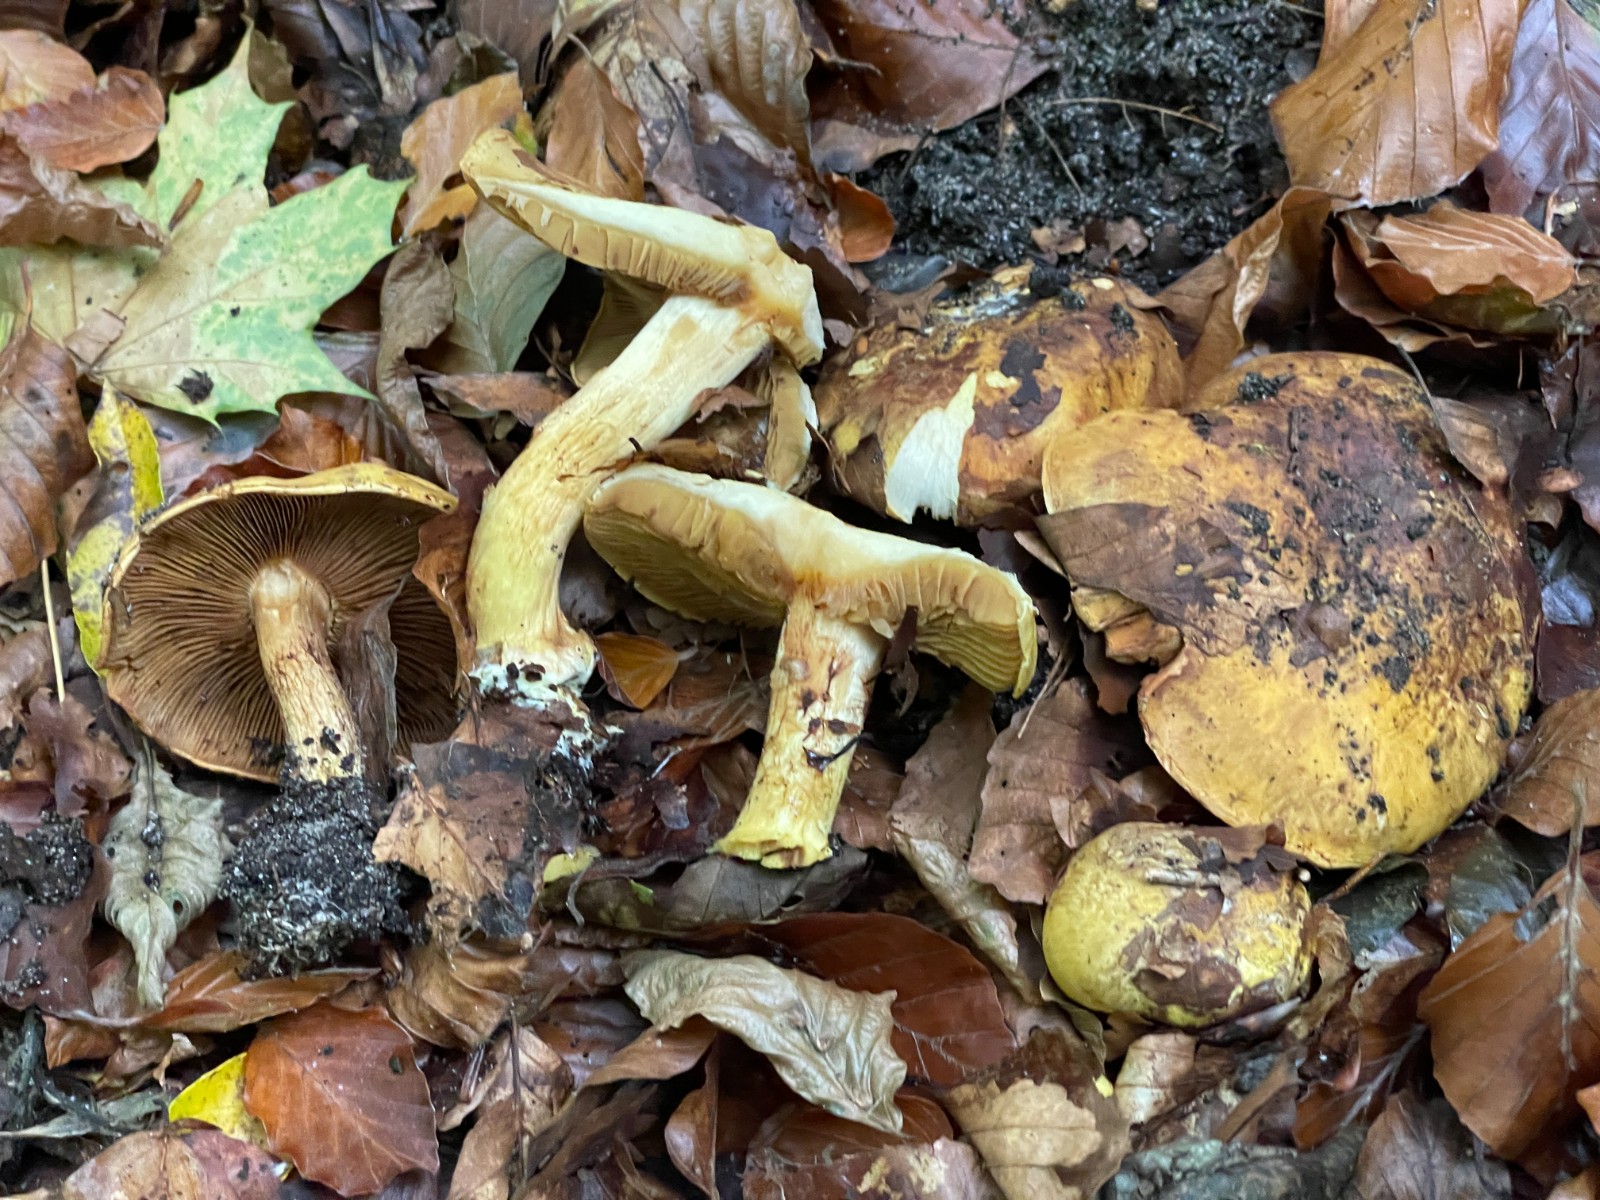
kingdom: Fungi
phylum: Basidiomycota
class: Agaricomycetes
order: Agaricales
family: Cortinariaceae
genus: Cortinarius
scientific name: Cortinarius
